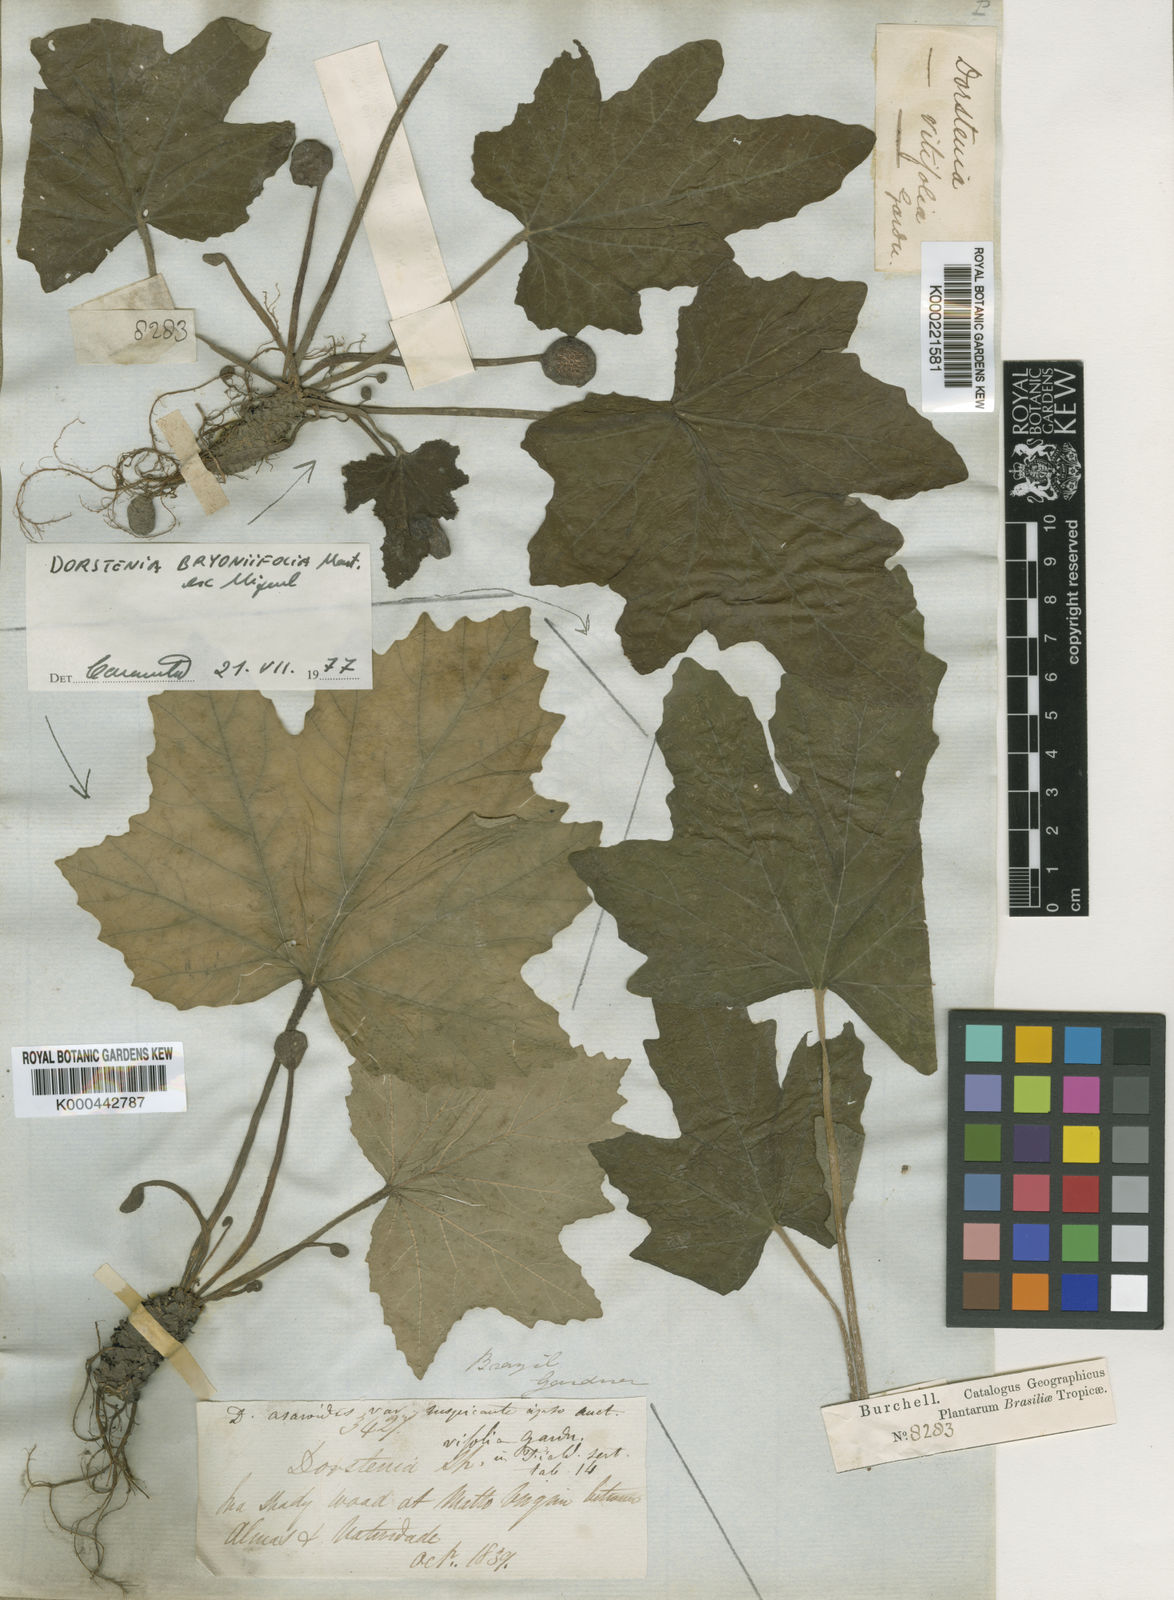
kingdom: Plantae
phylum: Tracheophyta
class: Magnoliopsida
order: Rosales
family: Moraceae
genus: Dorstenia
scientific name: Dorstenia cayapia
